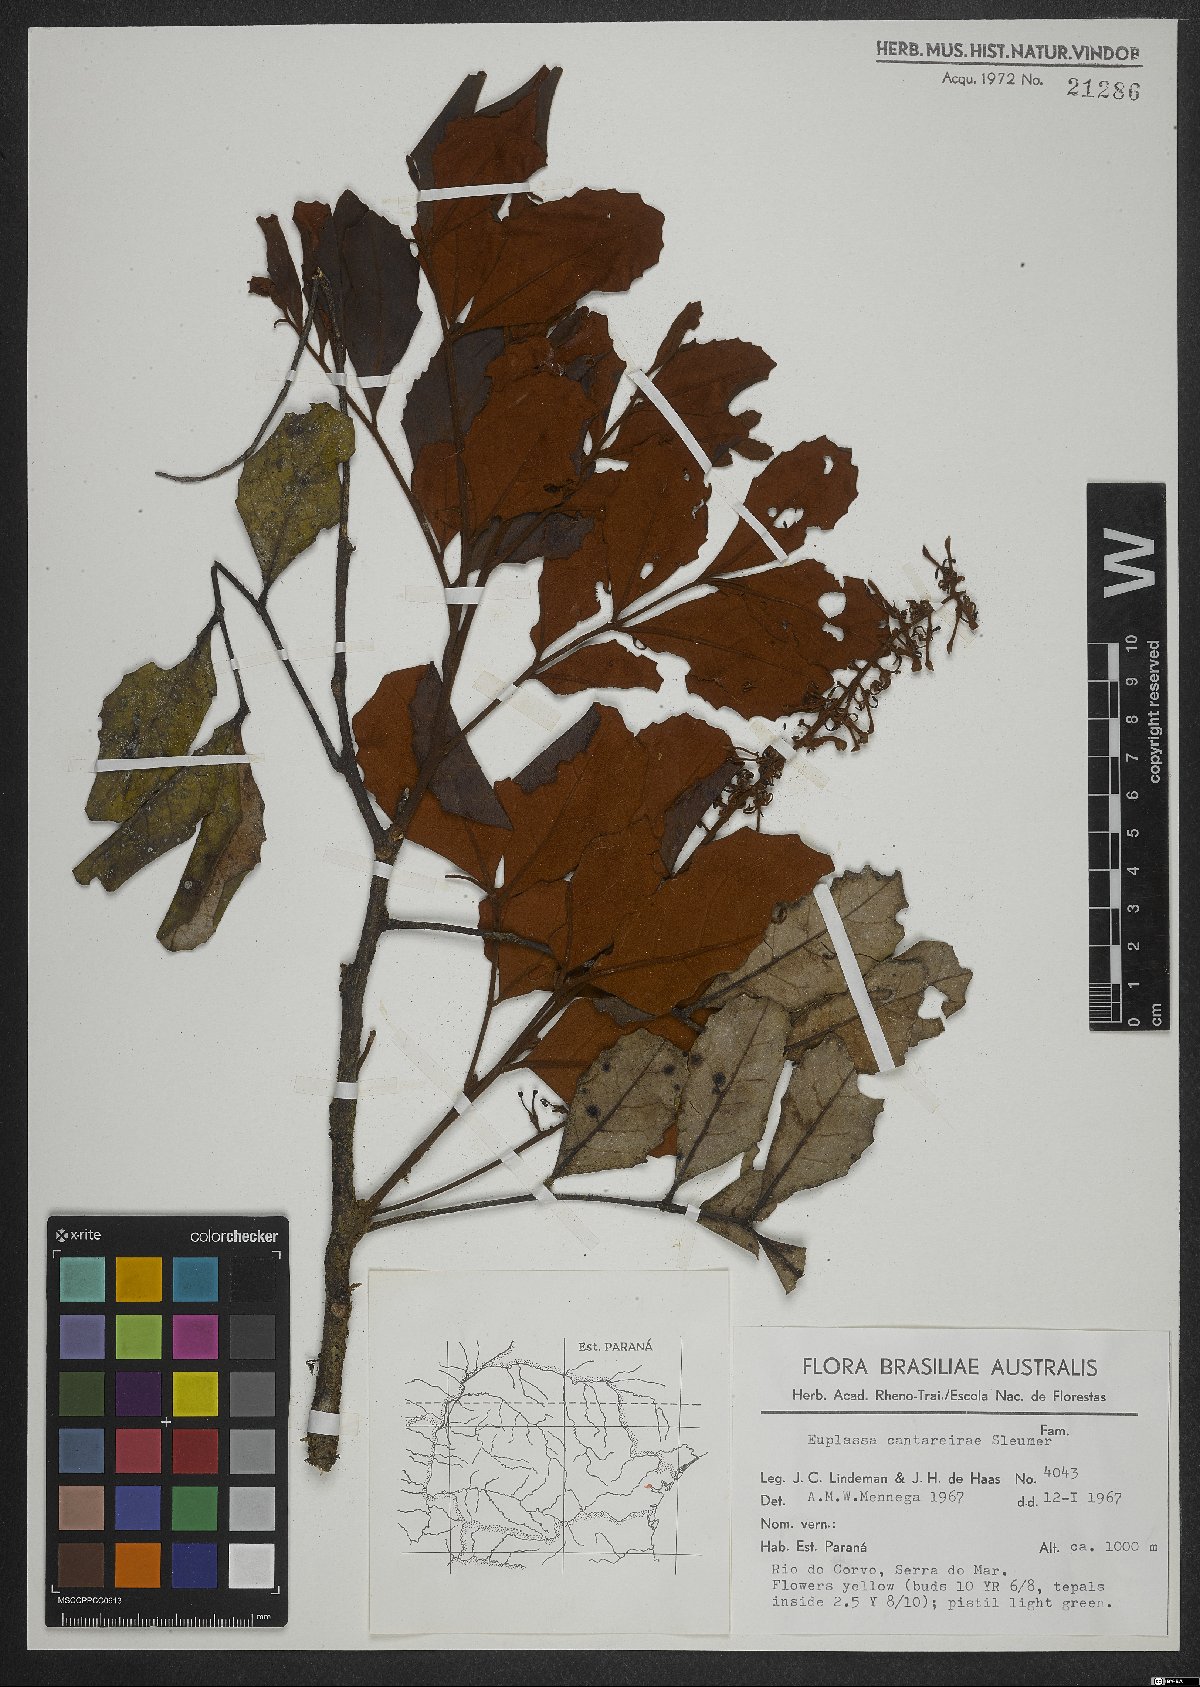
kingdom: Plantae
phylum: Tracheophyta
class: Magnoliopsida
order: Proteales
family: Proteaceae
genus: Euplassa
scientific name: Euplassa cantareirae
